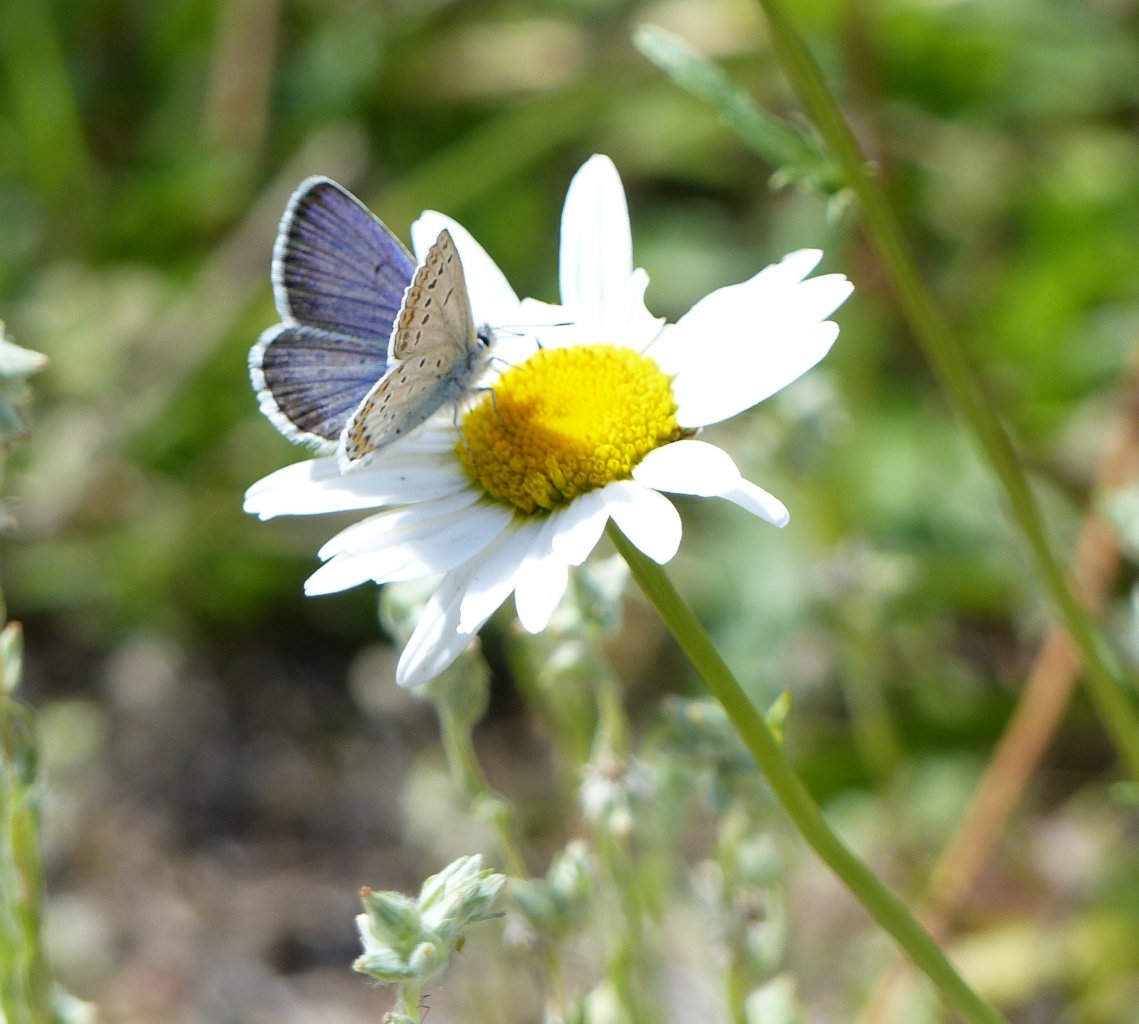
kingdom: Animalia
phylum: Arthropoda
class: Insecta
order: Lepidoptera
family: Lycaenidae
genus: Lycaeides
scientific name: Lycaeides melissa
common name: Melissa Blue
